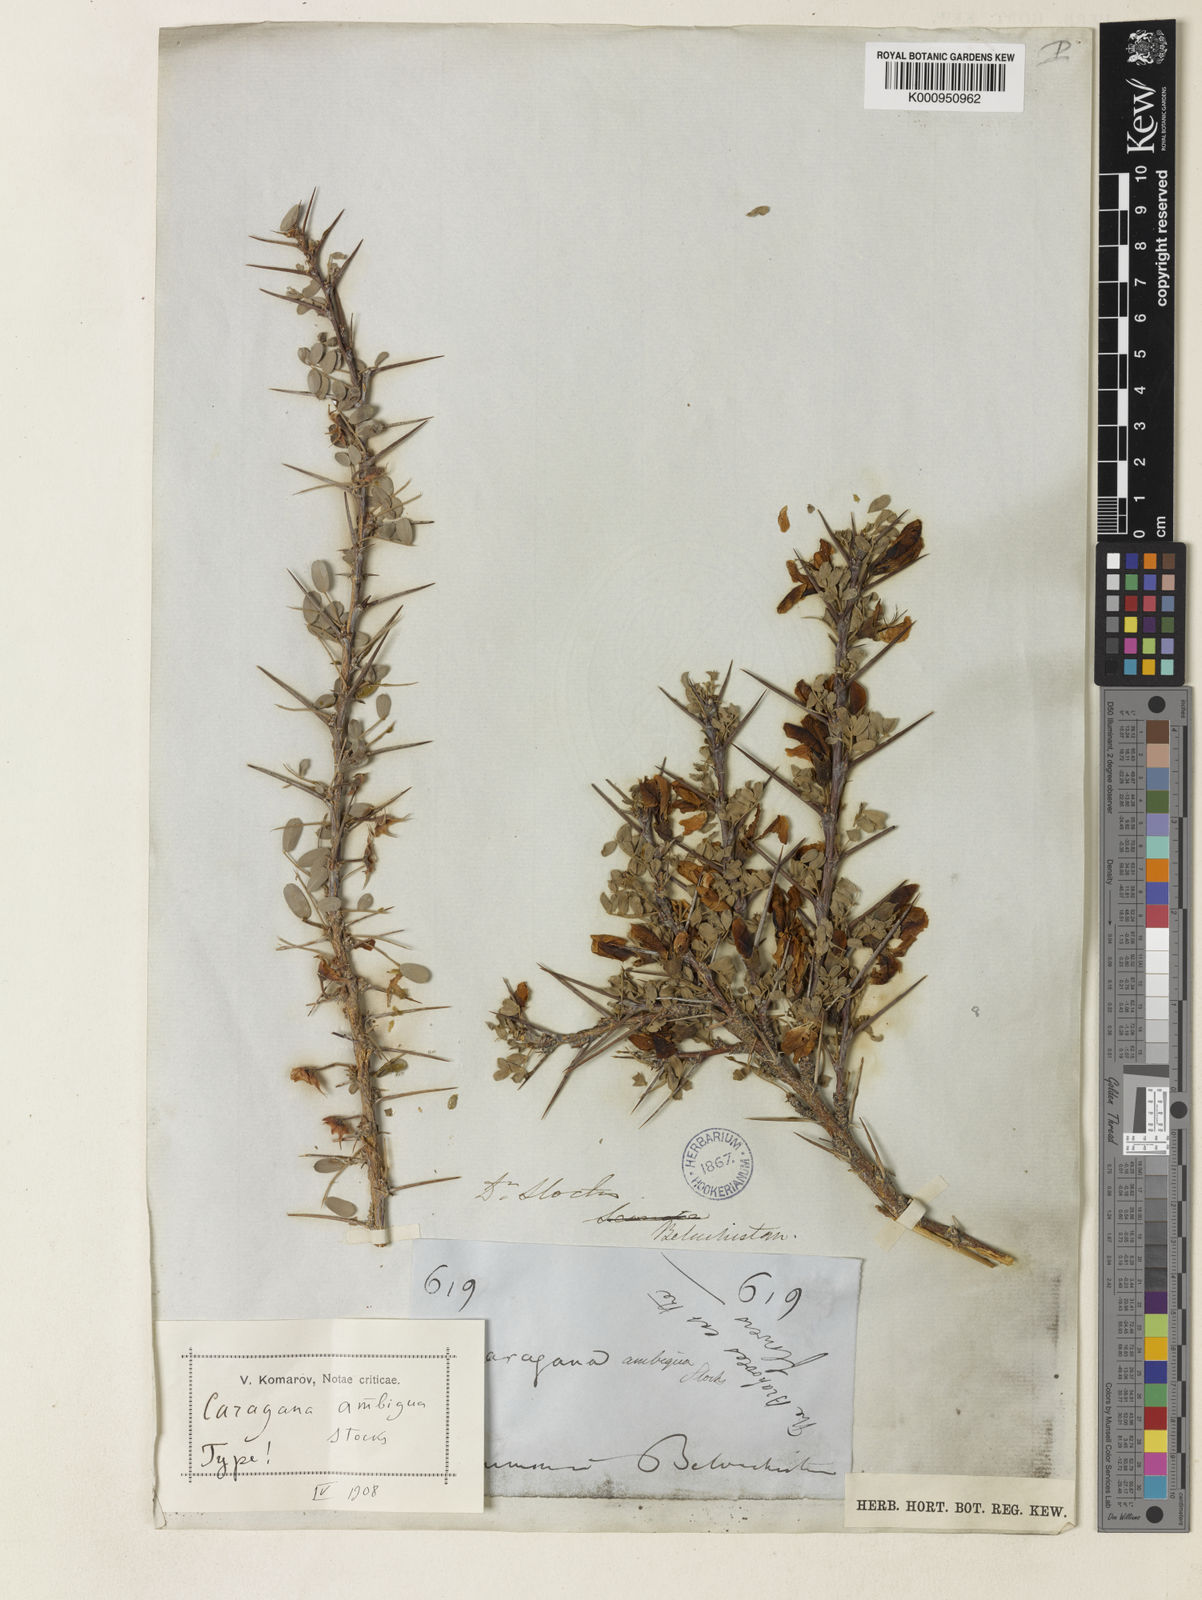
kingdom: Plantae
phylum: Tracheophyta
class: Magnoliopsida
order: Fabales
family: Fabaceae
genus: Caragana
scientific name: Caragana ambigua
